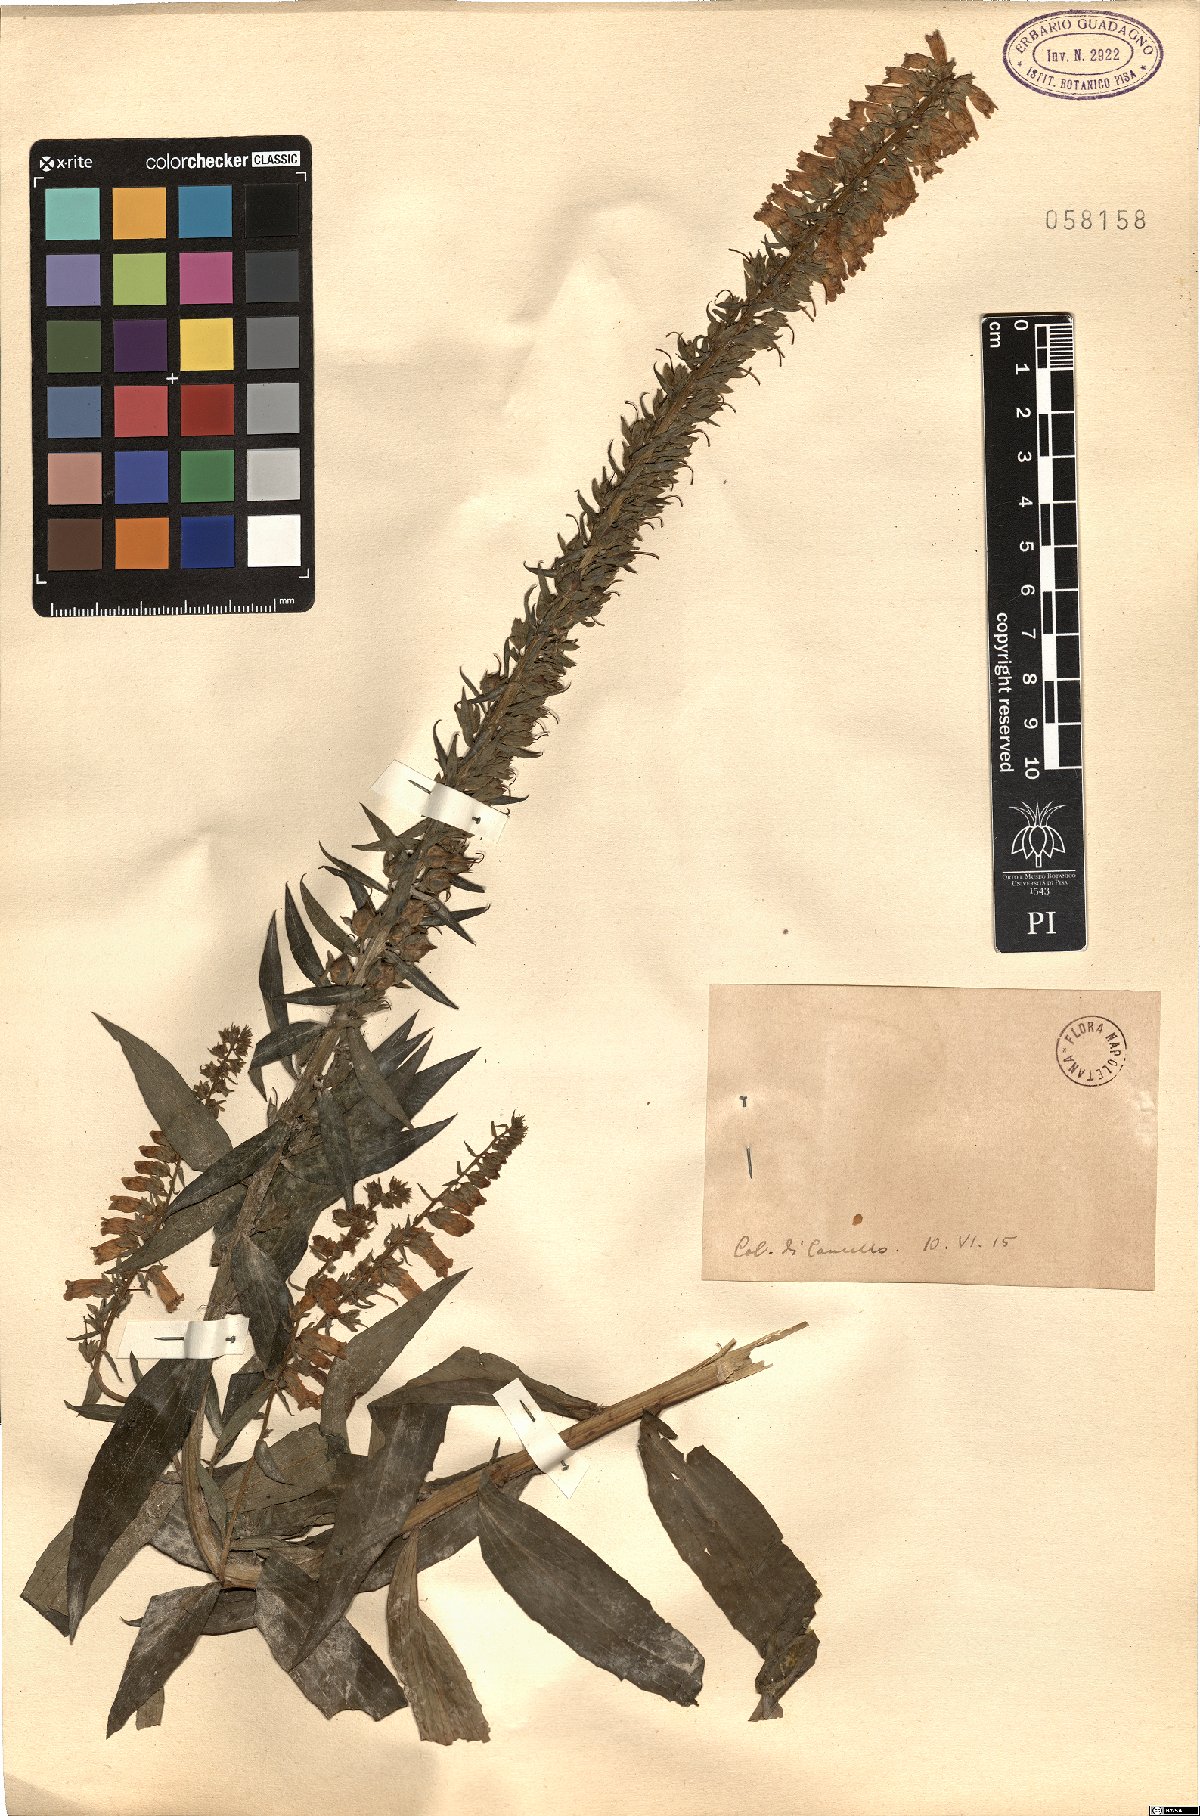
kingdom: Plantae
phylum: Tracheophyta
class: Magnoliopsida
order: Lamiales
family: Plantaginaceae
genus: Digitalis
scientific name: Digitalis
